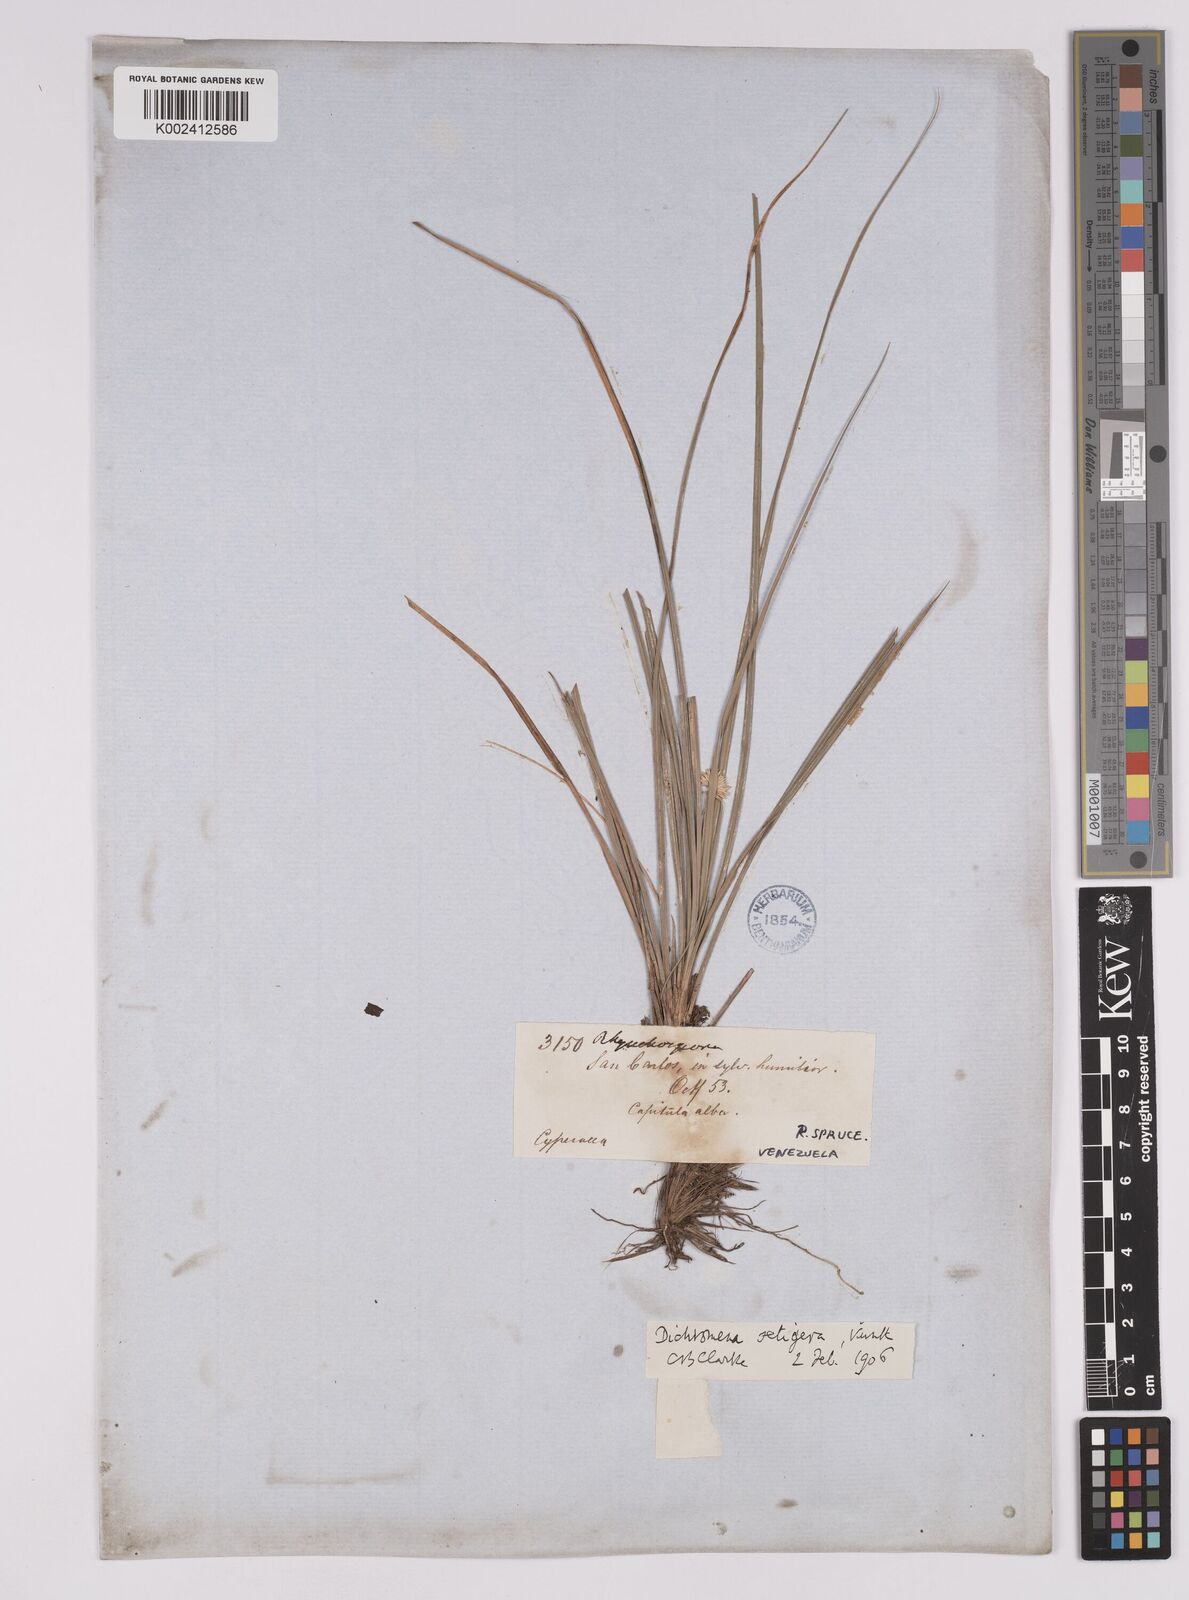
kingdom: Plantae
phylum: Tracheophyta
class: Liliopsida
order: Poales
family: Cyperaceae
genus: Rhynchospora
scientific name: Rhynchospora setigera
